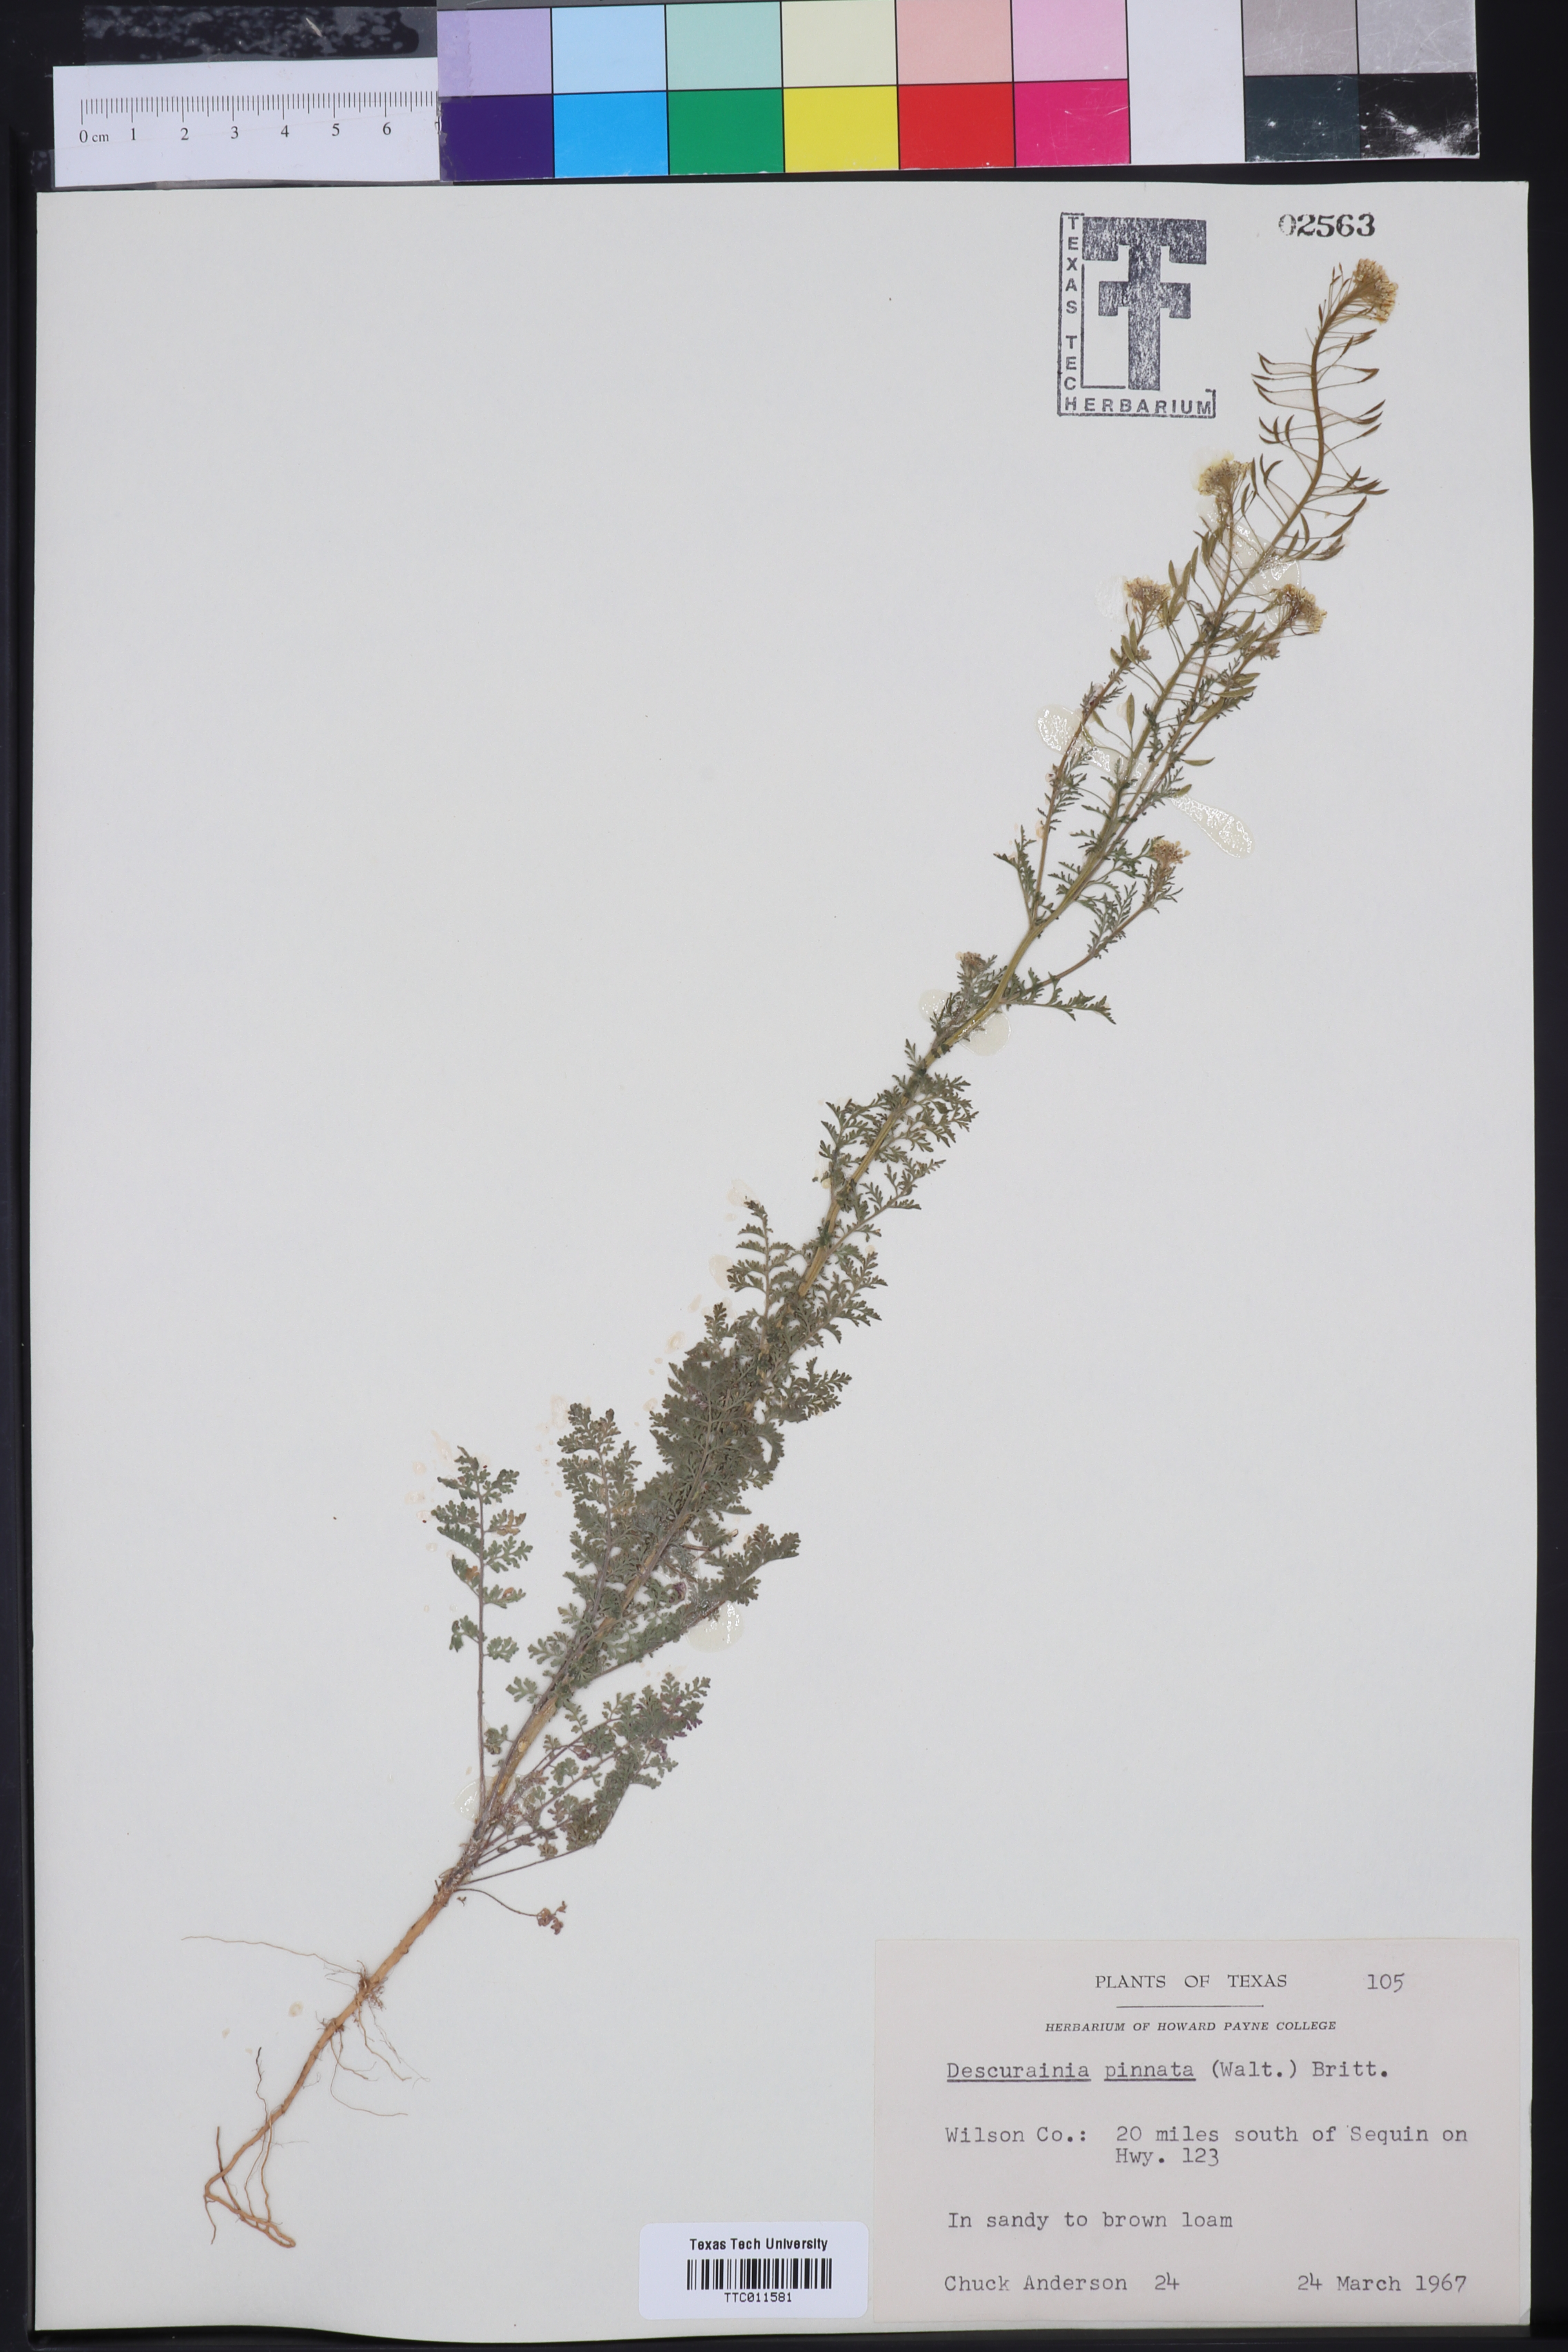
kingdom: Plantae
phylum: Tracheophyta
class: Magnoliopsida
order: Brassicales
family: Brassicaceae
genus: Descurainia
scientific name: Descurainia pinnata
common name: Western tansy mustard
